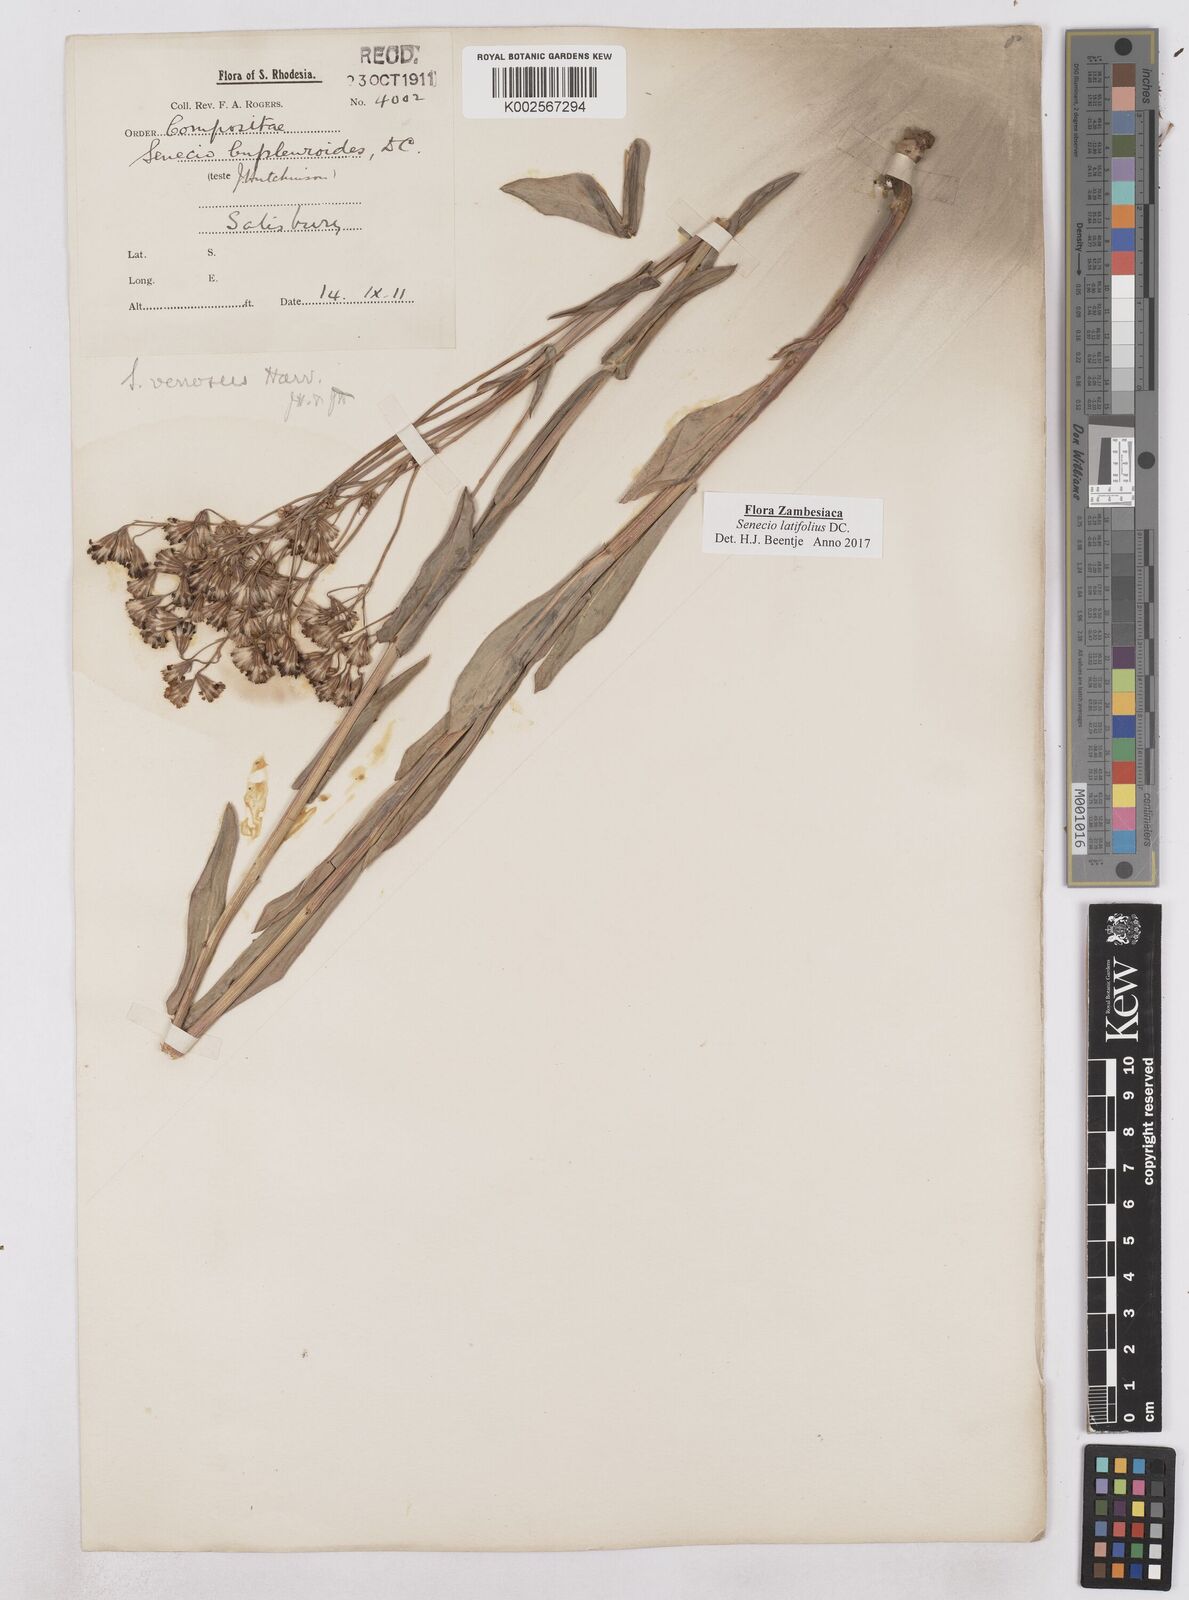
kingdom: Plantae
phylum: Tracheophyta
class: Magnoliopsida
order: Asterales
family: Asteraceae
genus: Senecio
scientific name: Senecio latifolius
